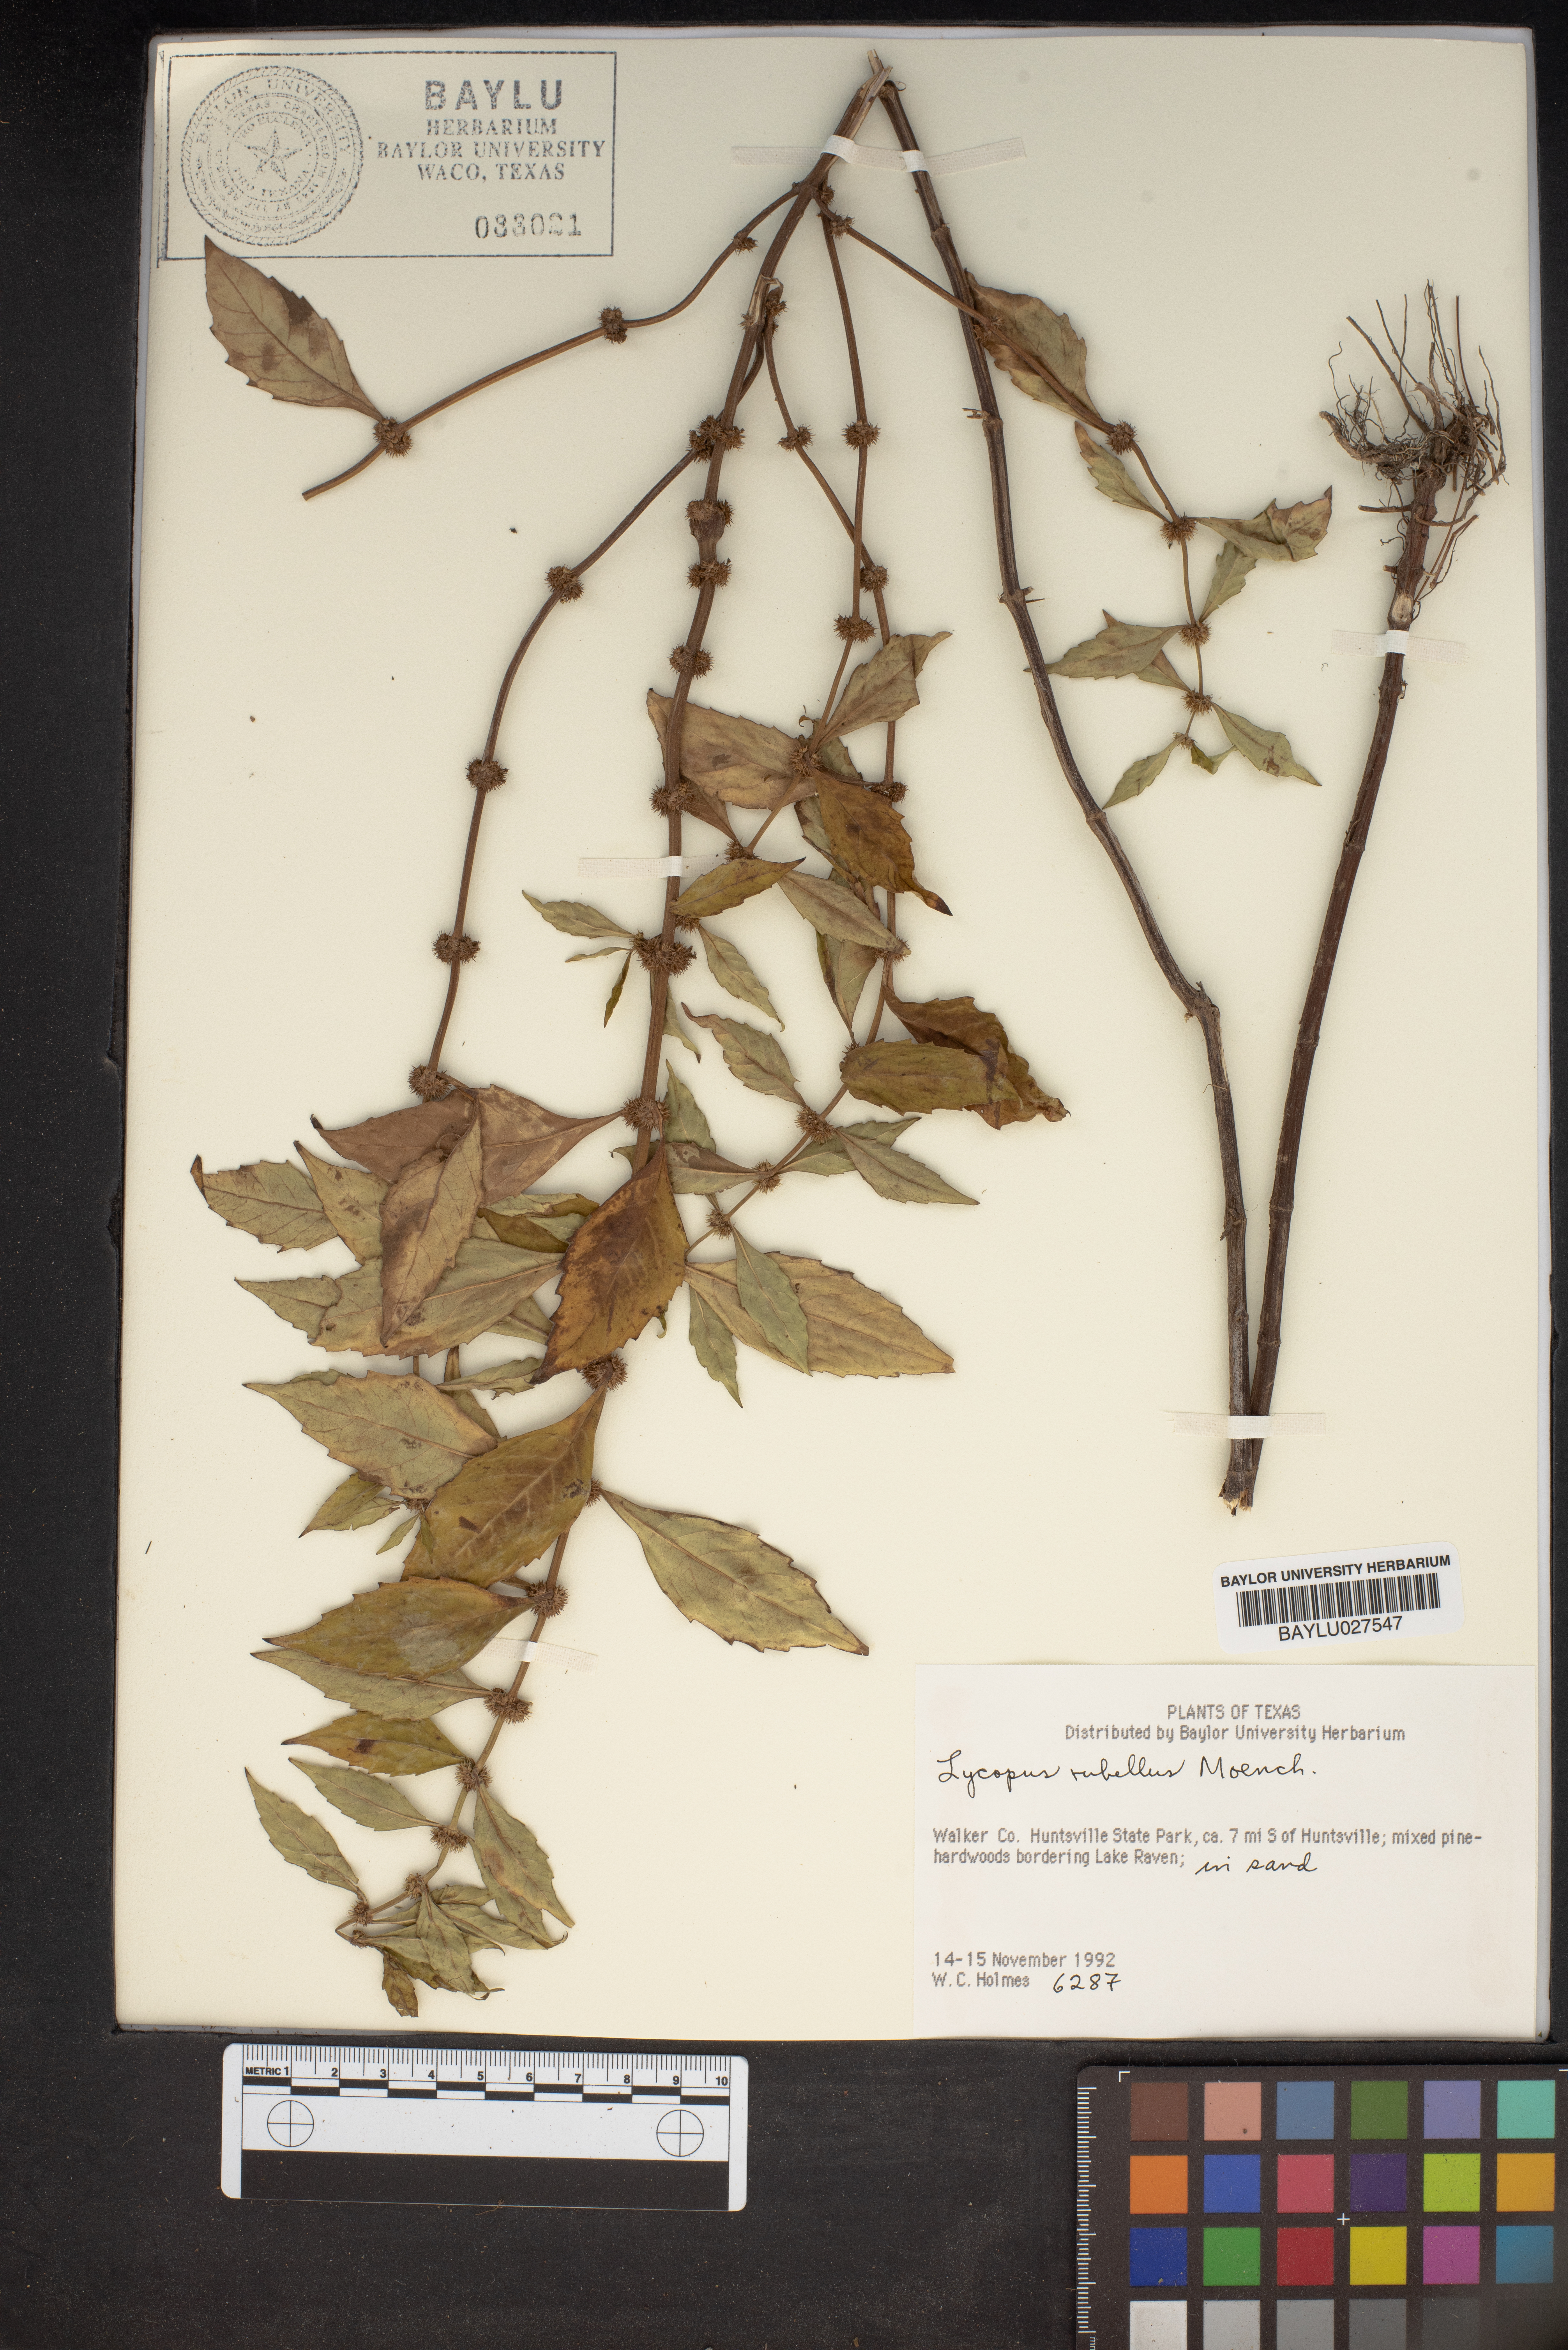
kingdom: Plantae
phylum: Tracheophyta
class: Magnoliopsida
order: Lamiales
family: Lamiaceae
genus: Lycopus
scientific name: Lycopus rubellus
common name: Stalked bugleweed
